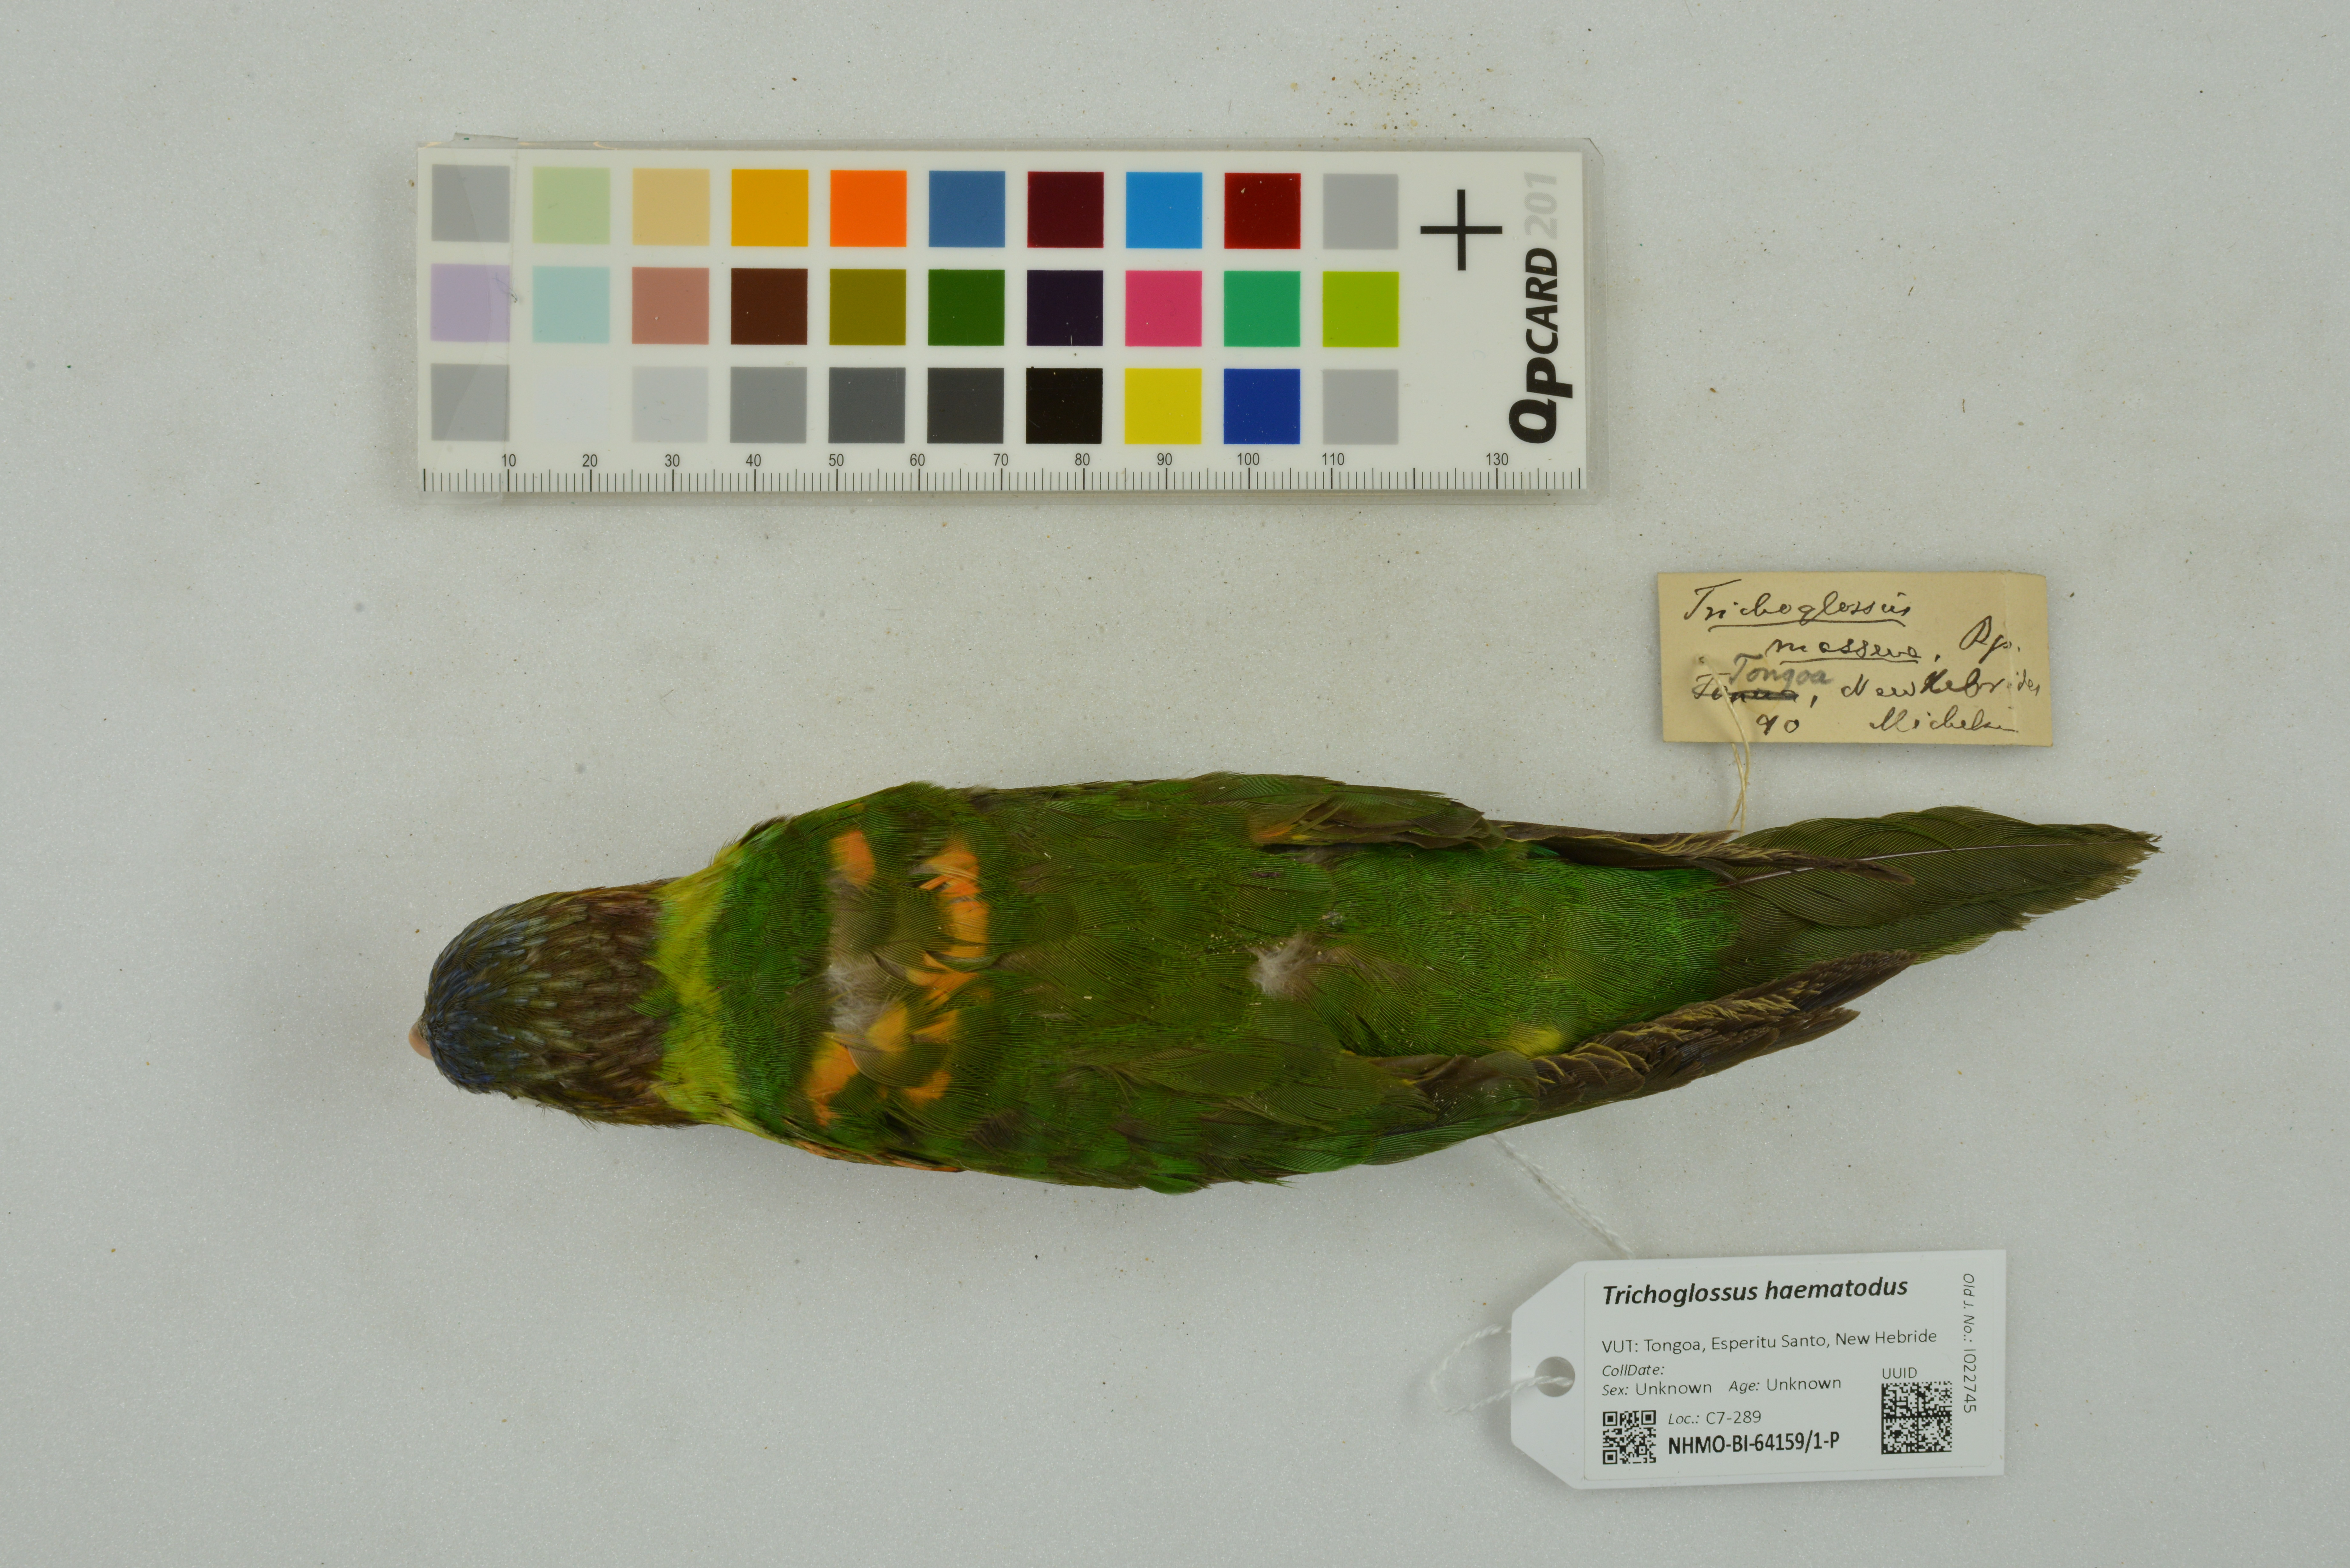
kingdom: Animalia
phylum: Chordata
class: Aves
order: Psittaciformes
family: Psittacidae
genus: Trichoglossus
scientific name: Trichoglossus haematodus
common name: Coconut lorikeet
